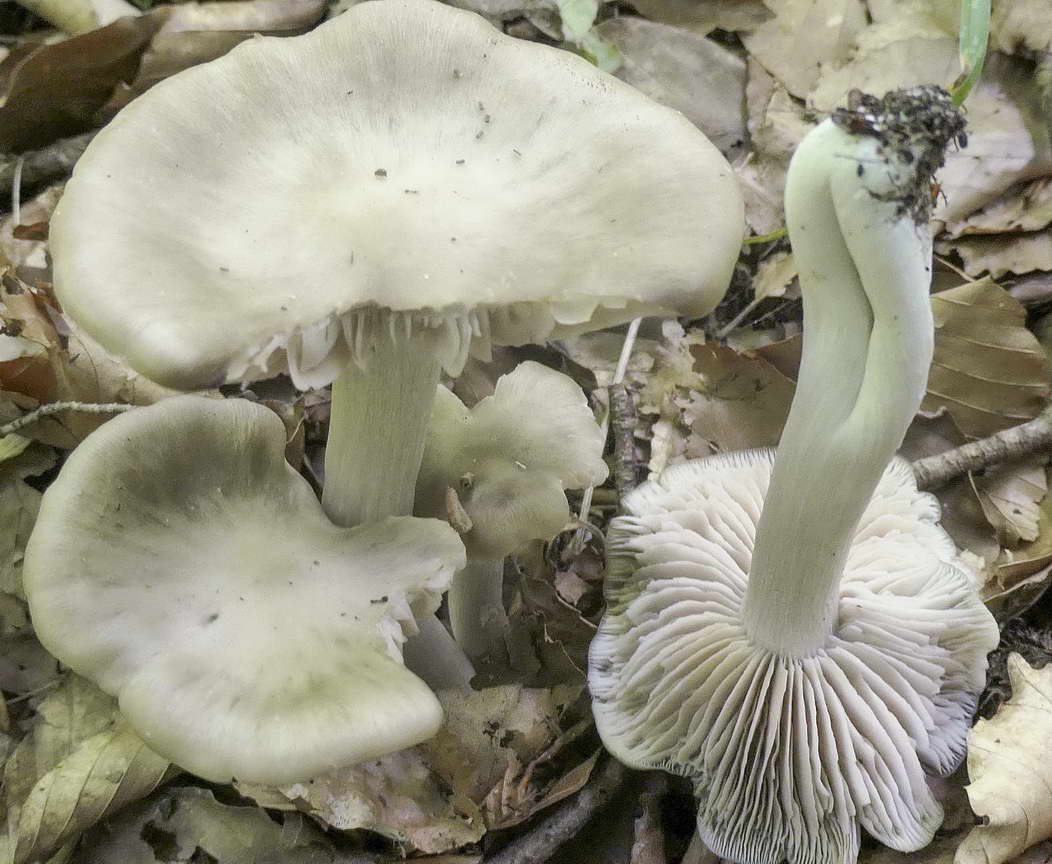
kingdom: Fungi
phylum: Basidiomycota
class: Agaricomycetes
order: Agaricales
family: Entolomataceae
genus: Entoloma
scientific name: Entoloma
